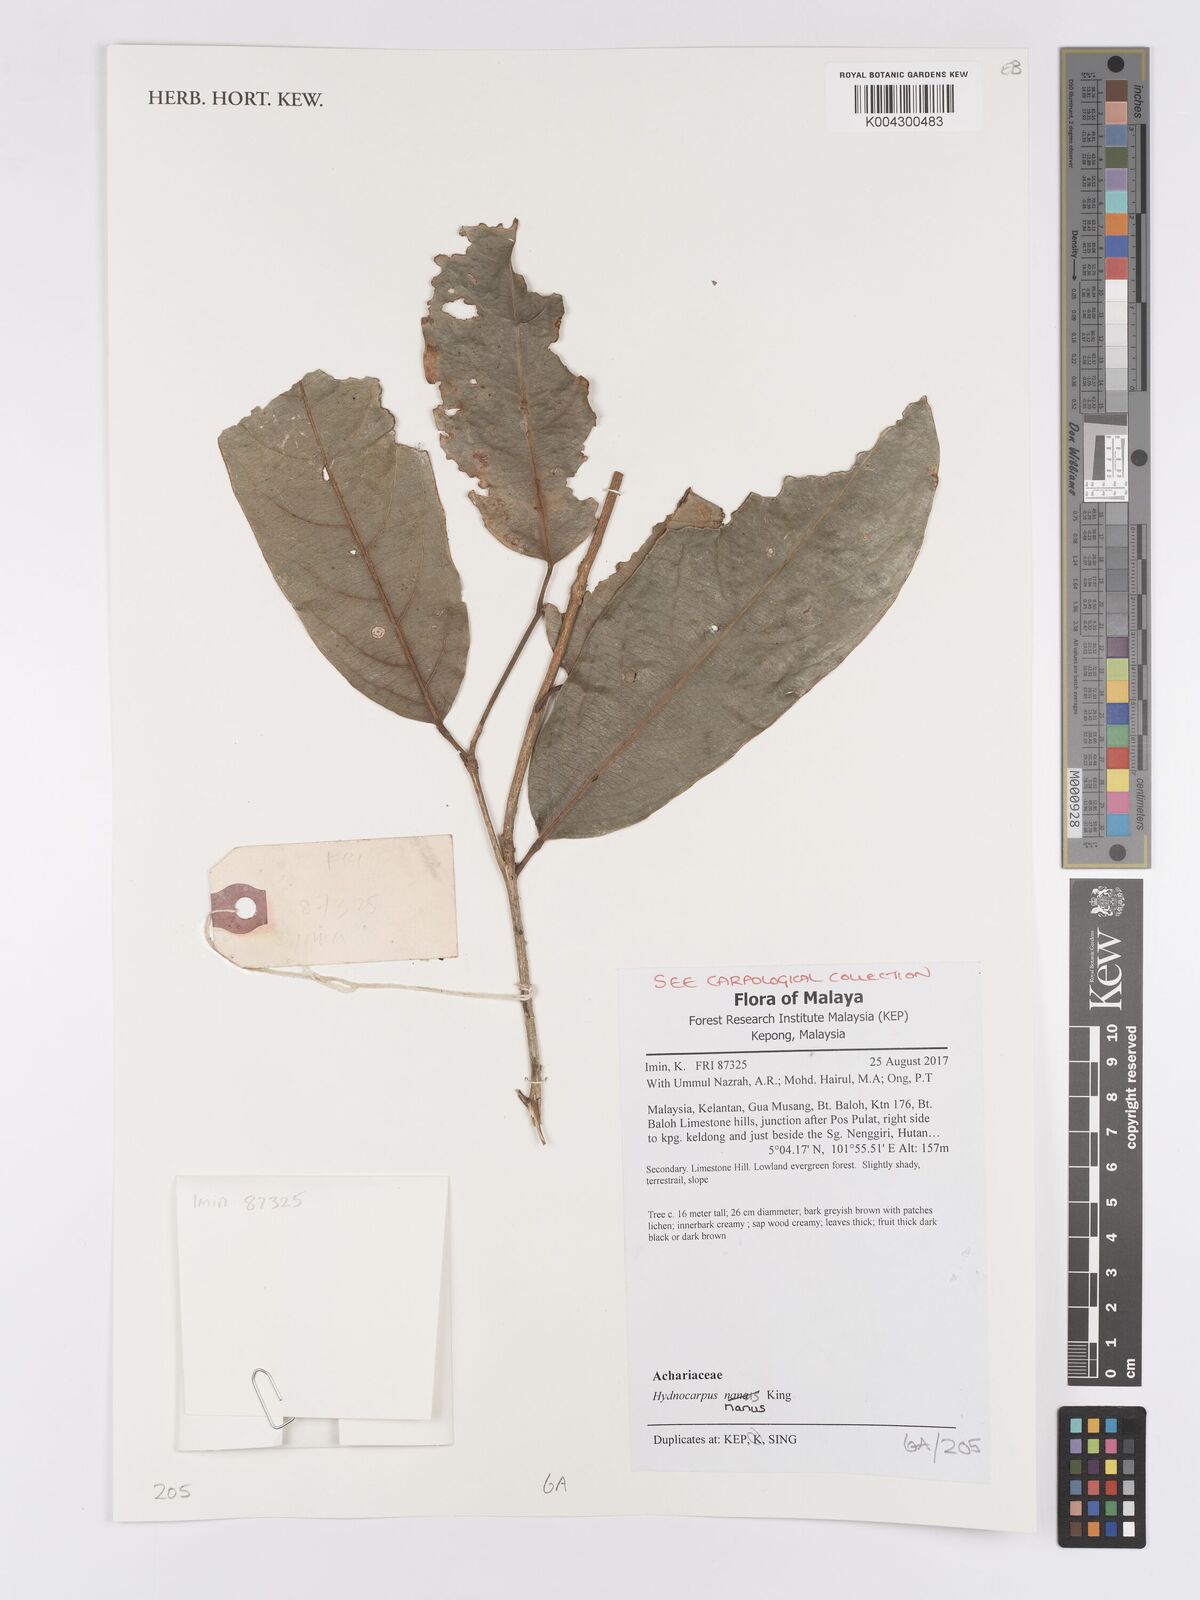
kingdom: Plantae
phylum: Tracheophyta
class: Magnoliopsida
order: Malpighiales
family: Achariaceae
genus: Hydnocarpus
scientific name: Hydnocarpus nanus
